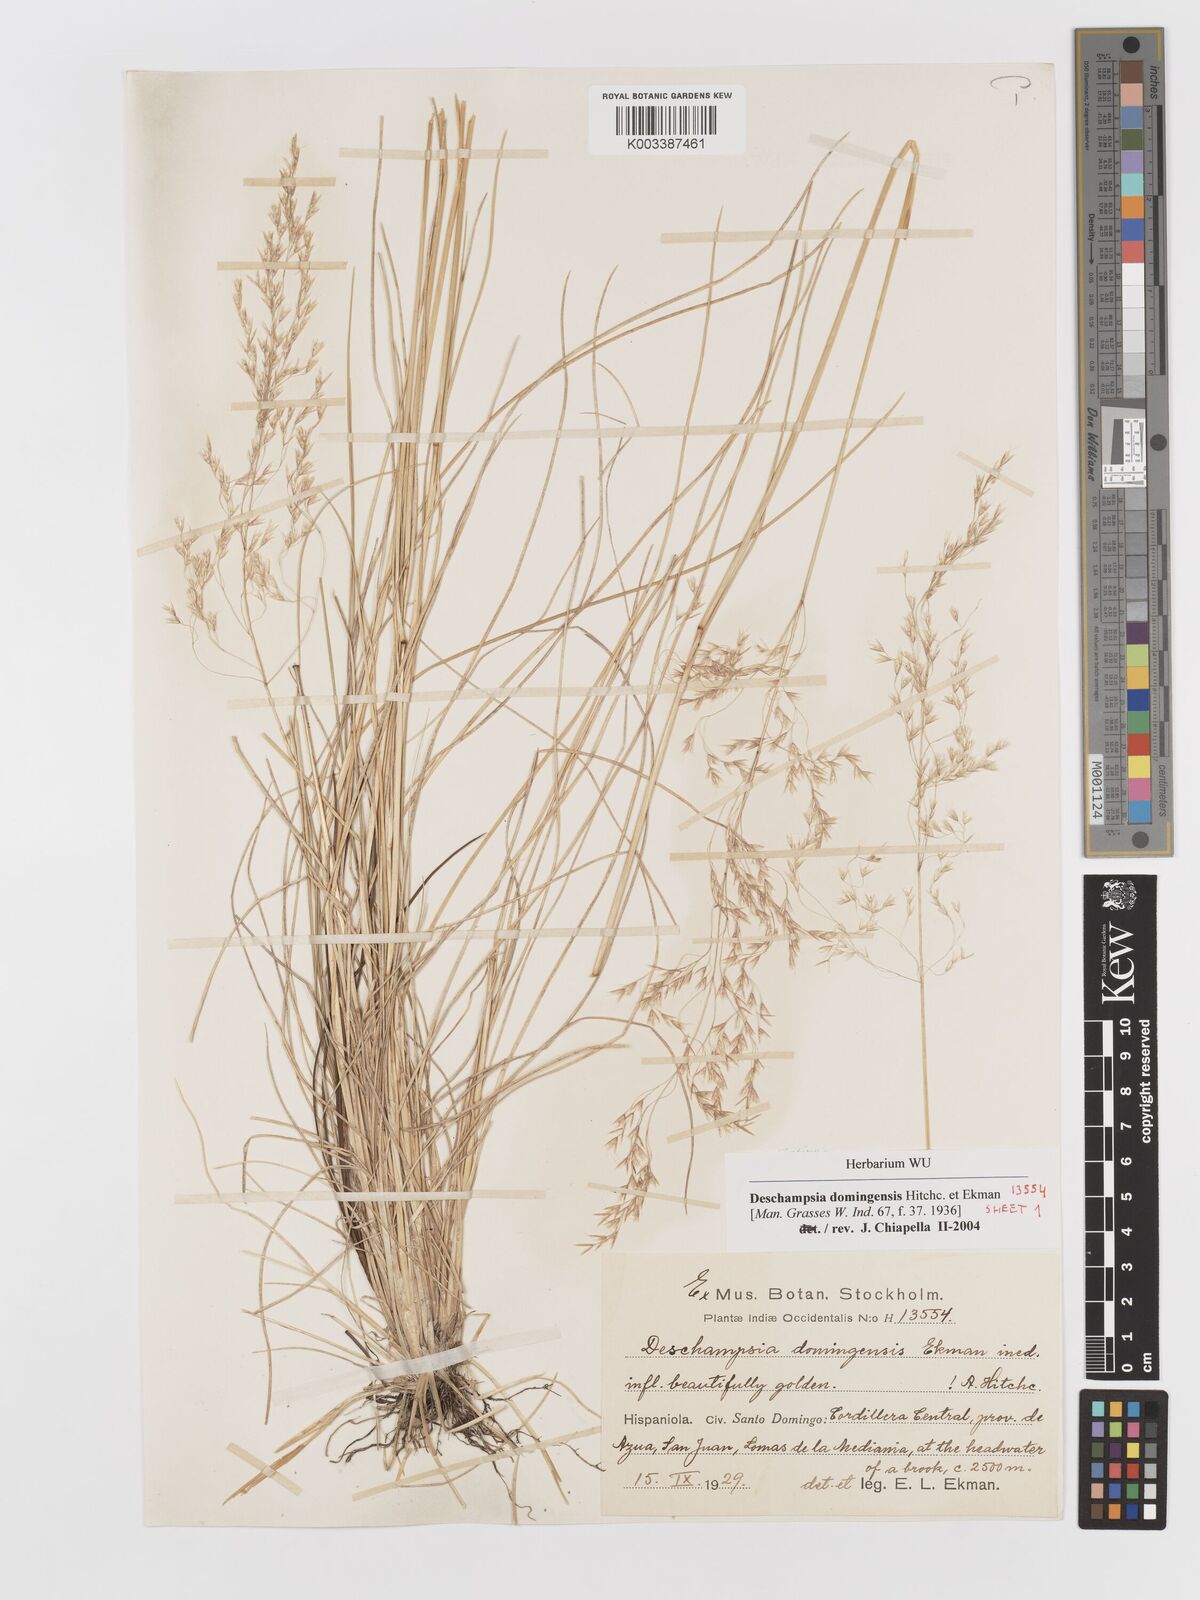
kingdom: Plantae
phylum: Tracheophyta
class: Liliopsida
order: Poales
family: Poaceae
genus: Deschampsia
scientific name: Deschampsia domingensis
